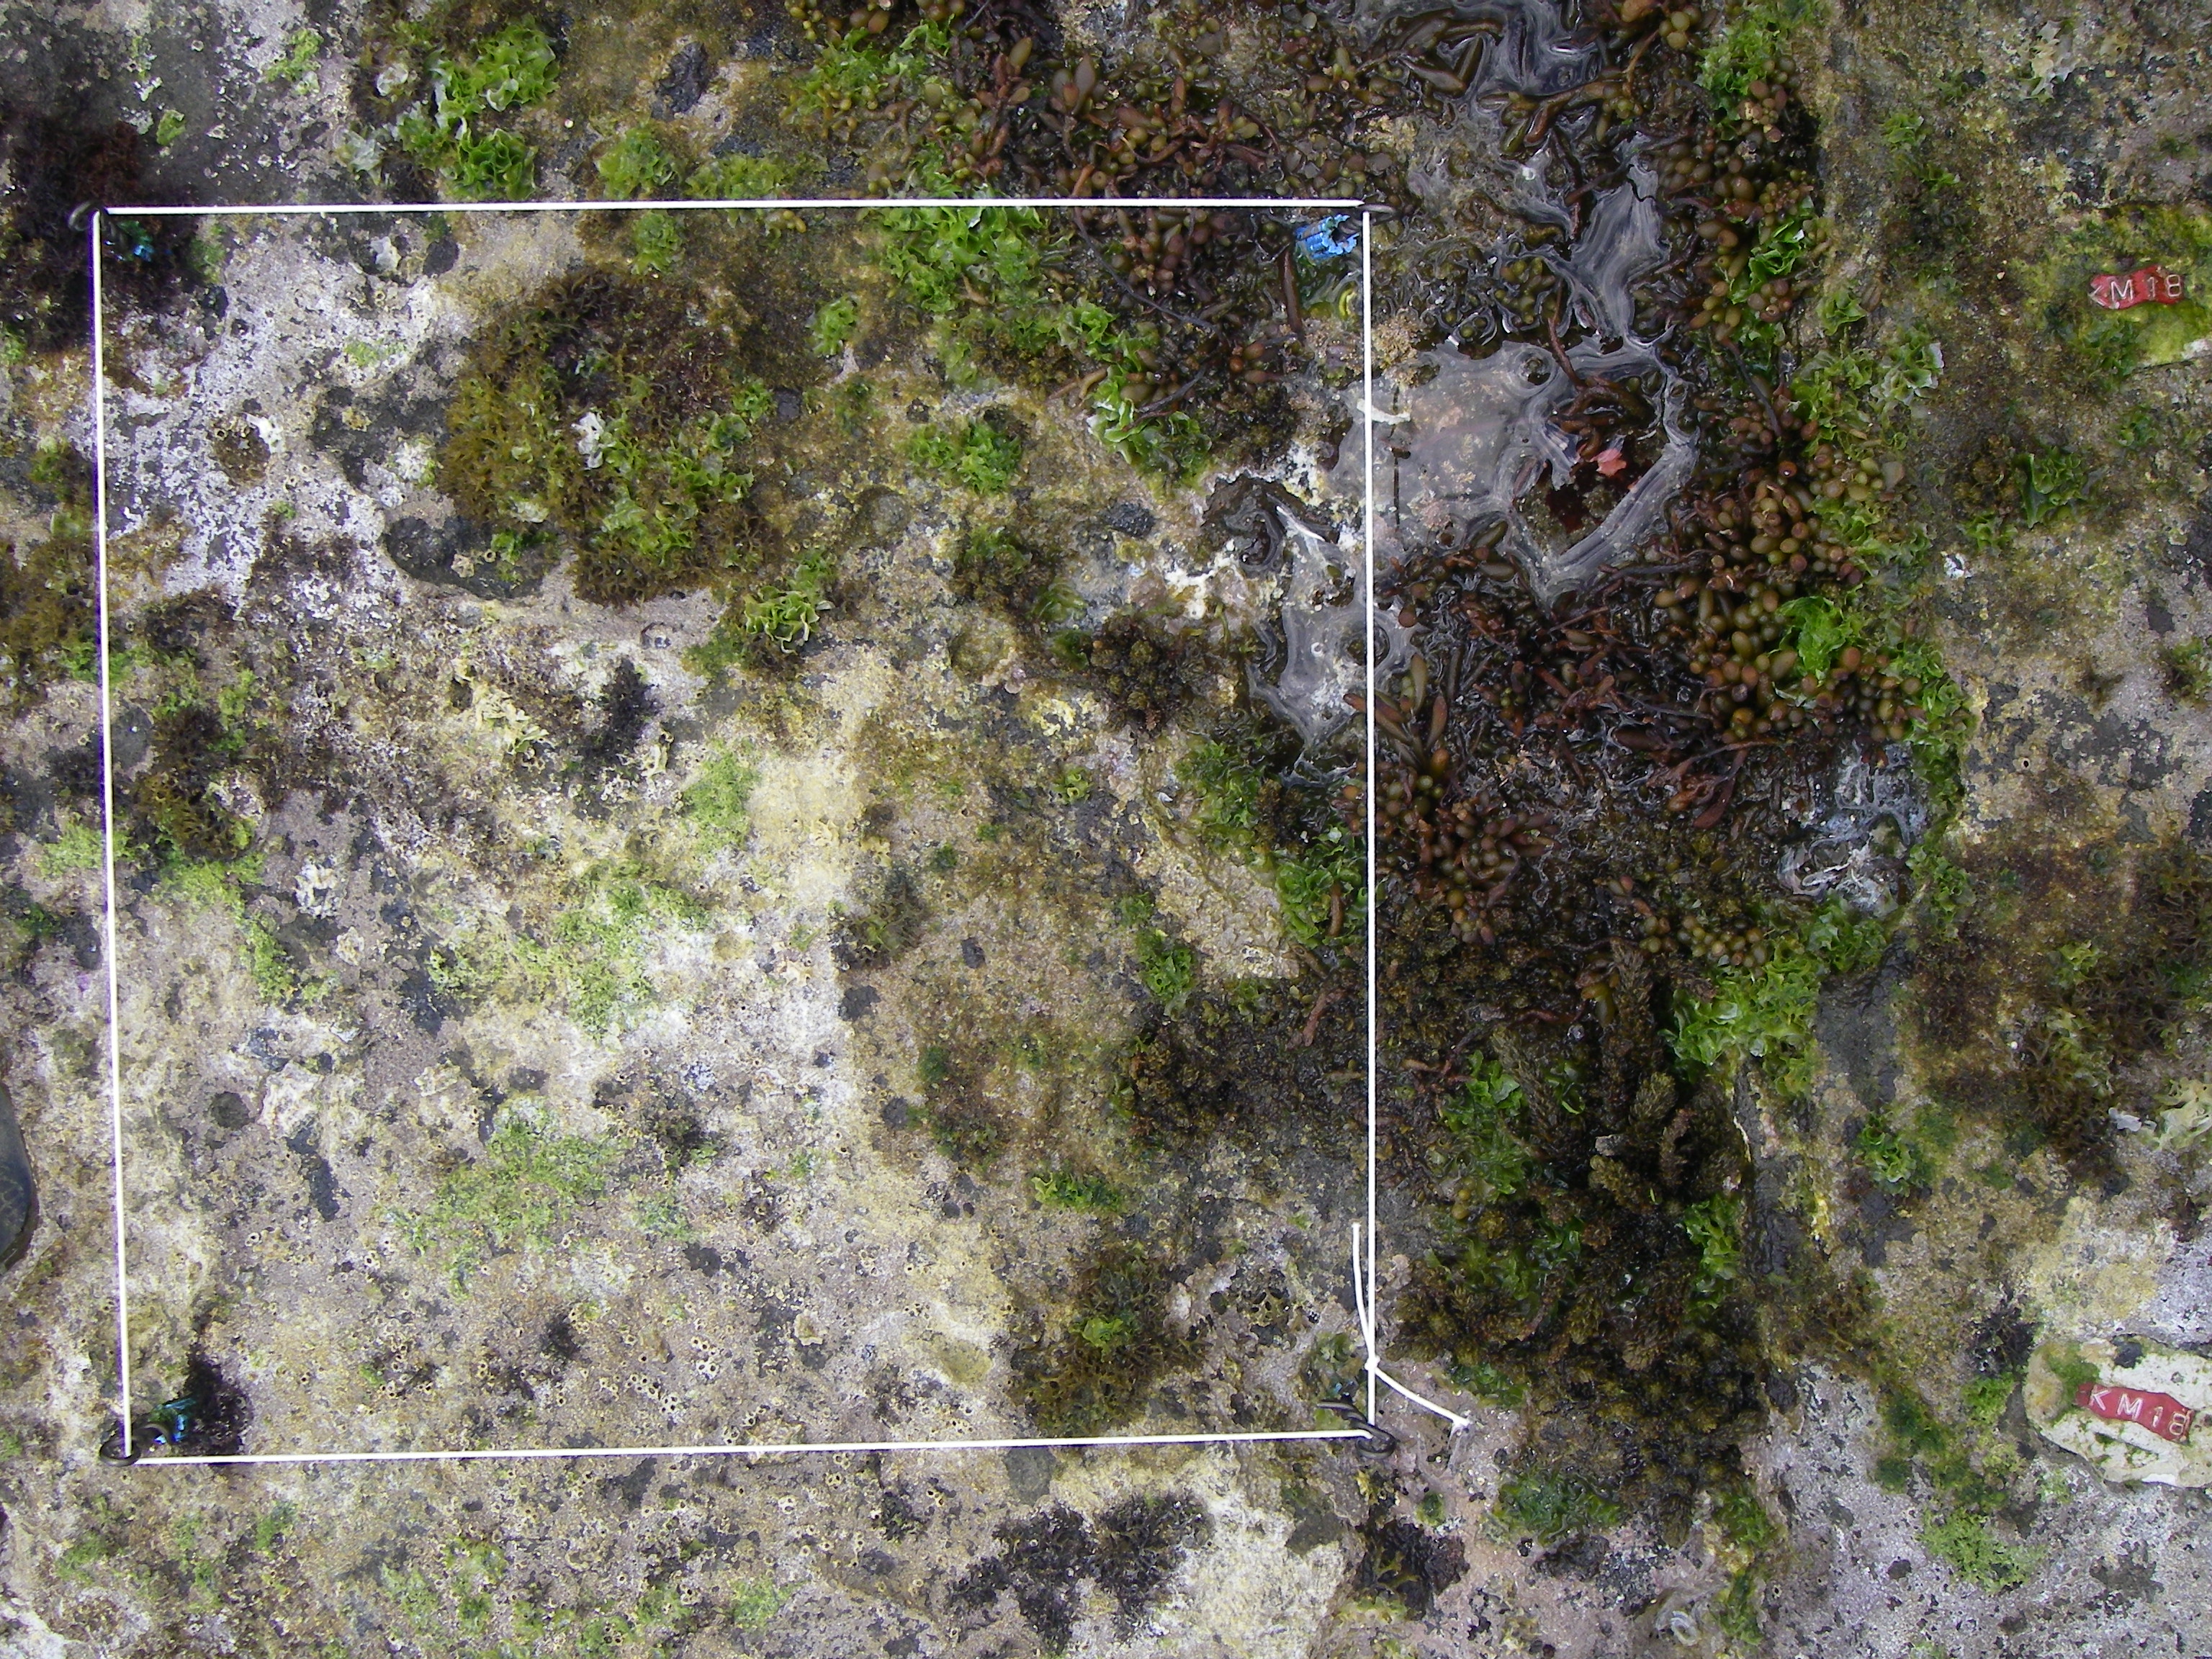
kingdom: Chromista
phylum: Ochrophyta
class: Phaeophyceae
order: Fucales
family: Sargassaceae
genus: Sargassum
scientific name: Sargassum fusiforme
